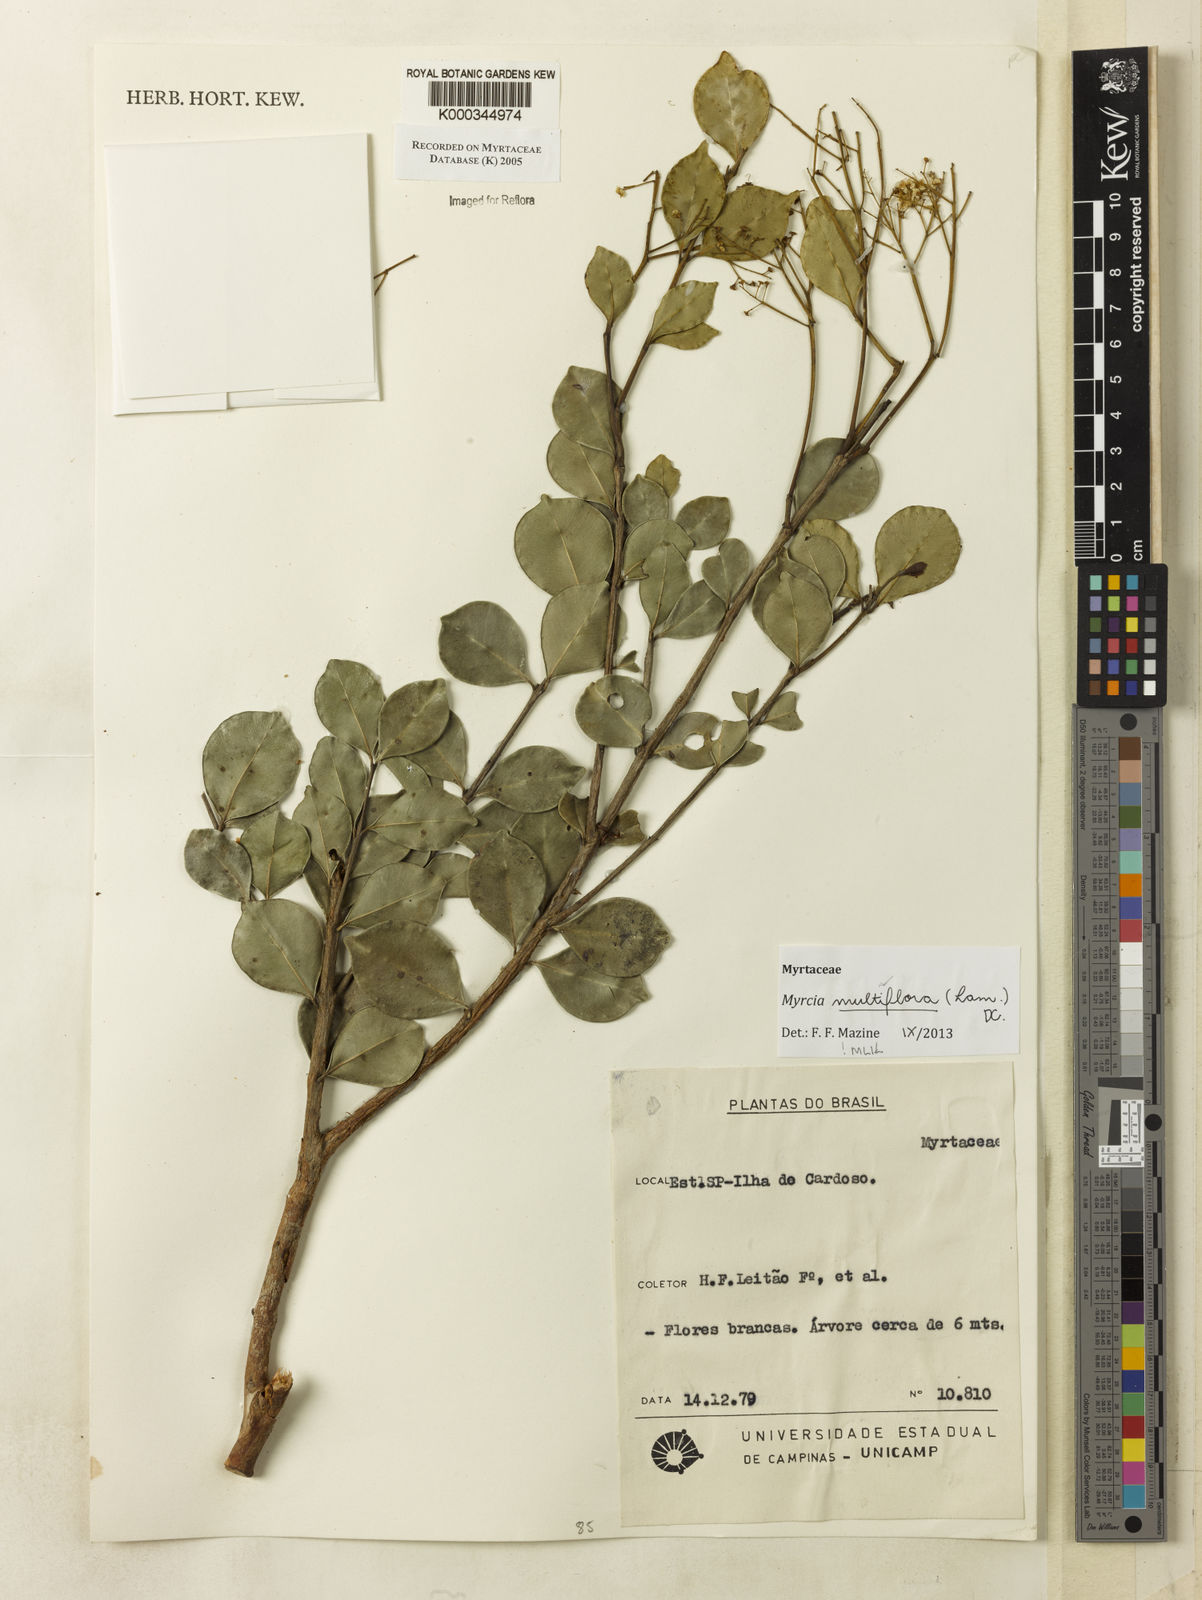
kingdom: Plantae
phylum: Tracheophyta
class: Magnoliopsida
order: Myrtales
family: Myrtaceae
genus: Myrcia
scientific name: Myrcia
